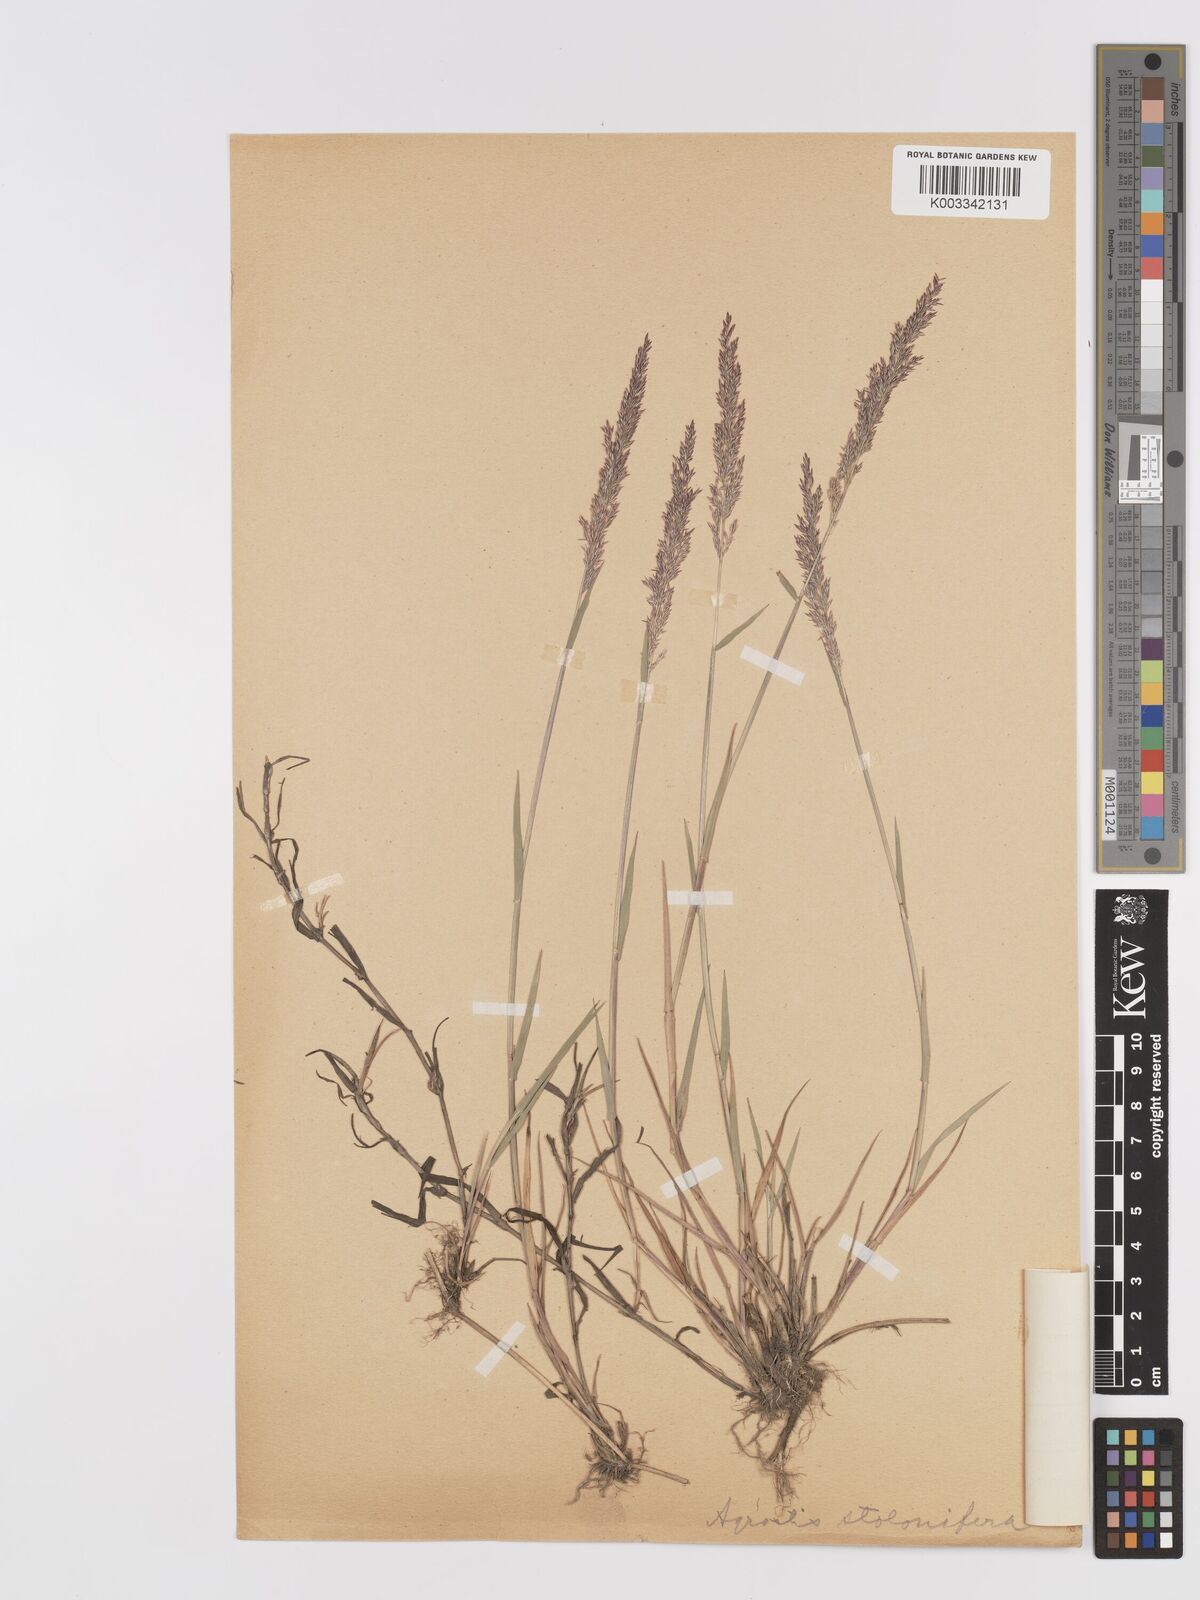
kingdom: Plantae
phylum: Tracheophyta
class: Liliopsida
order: Poales
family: Poaceae
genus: Agrostis
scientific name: Agrostis stolonifera
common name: Creeping bentgrass
